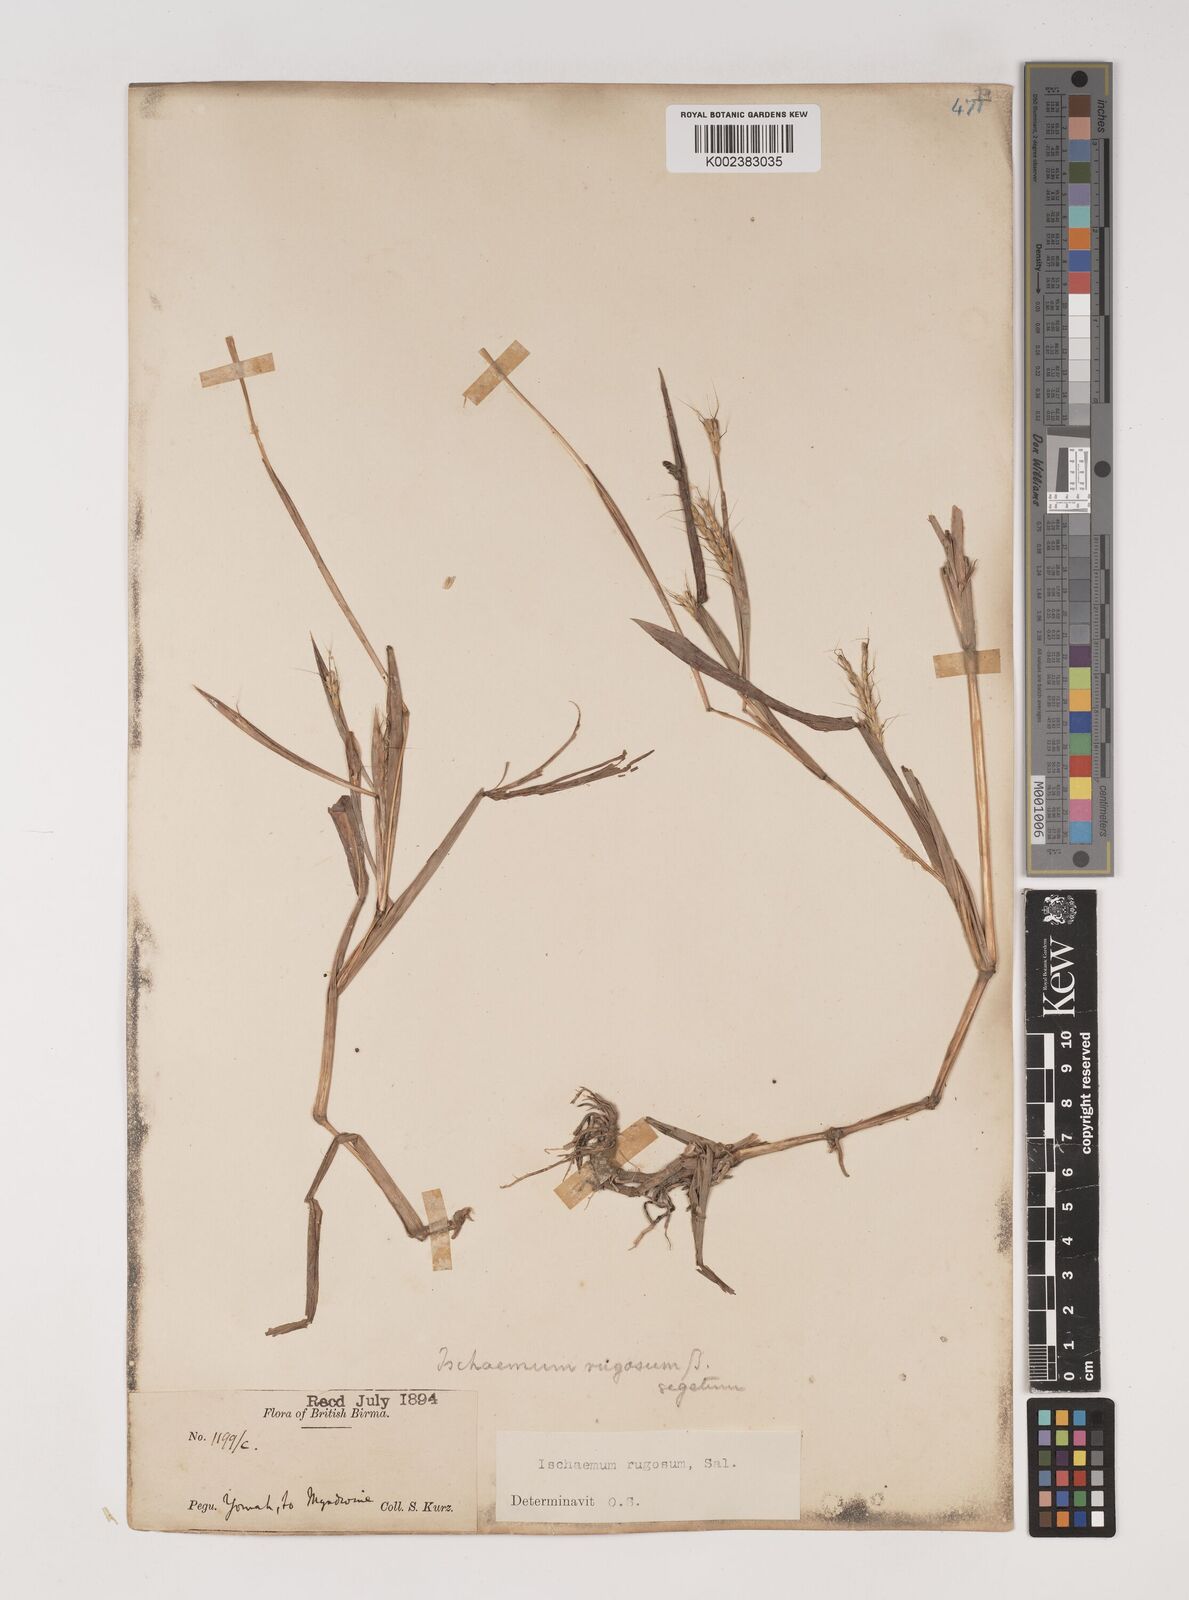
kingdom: Plantae
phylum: Tracheophyta
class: Liliopsida
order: Poales
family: Poaceae
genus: Ischaemum
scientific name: Ischaemum rugosum
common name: Saramatta grass
